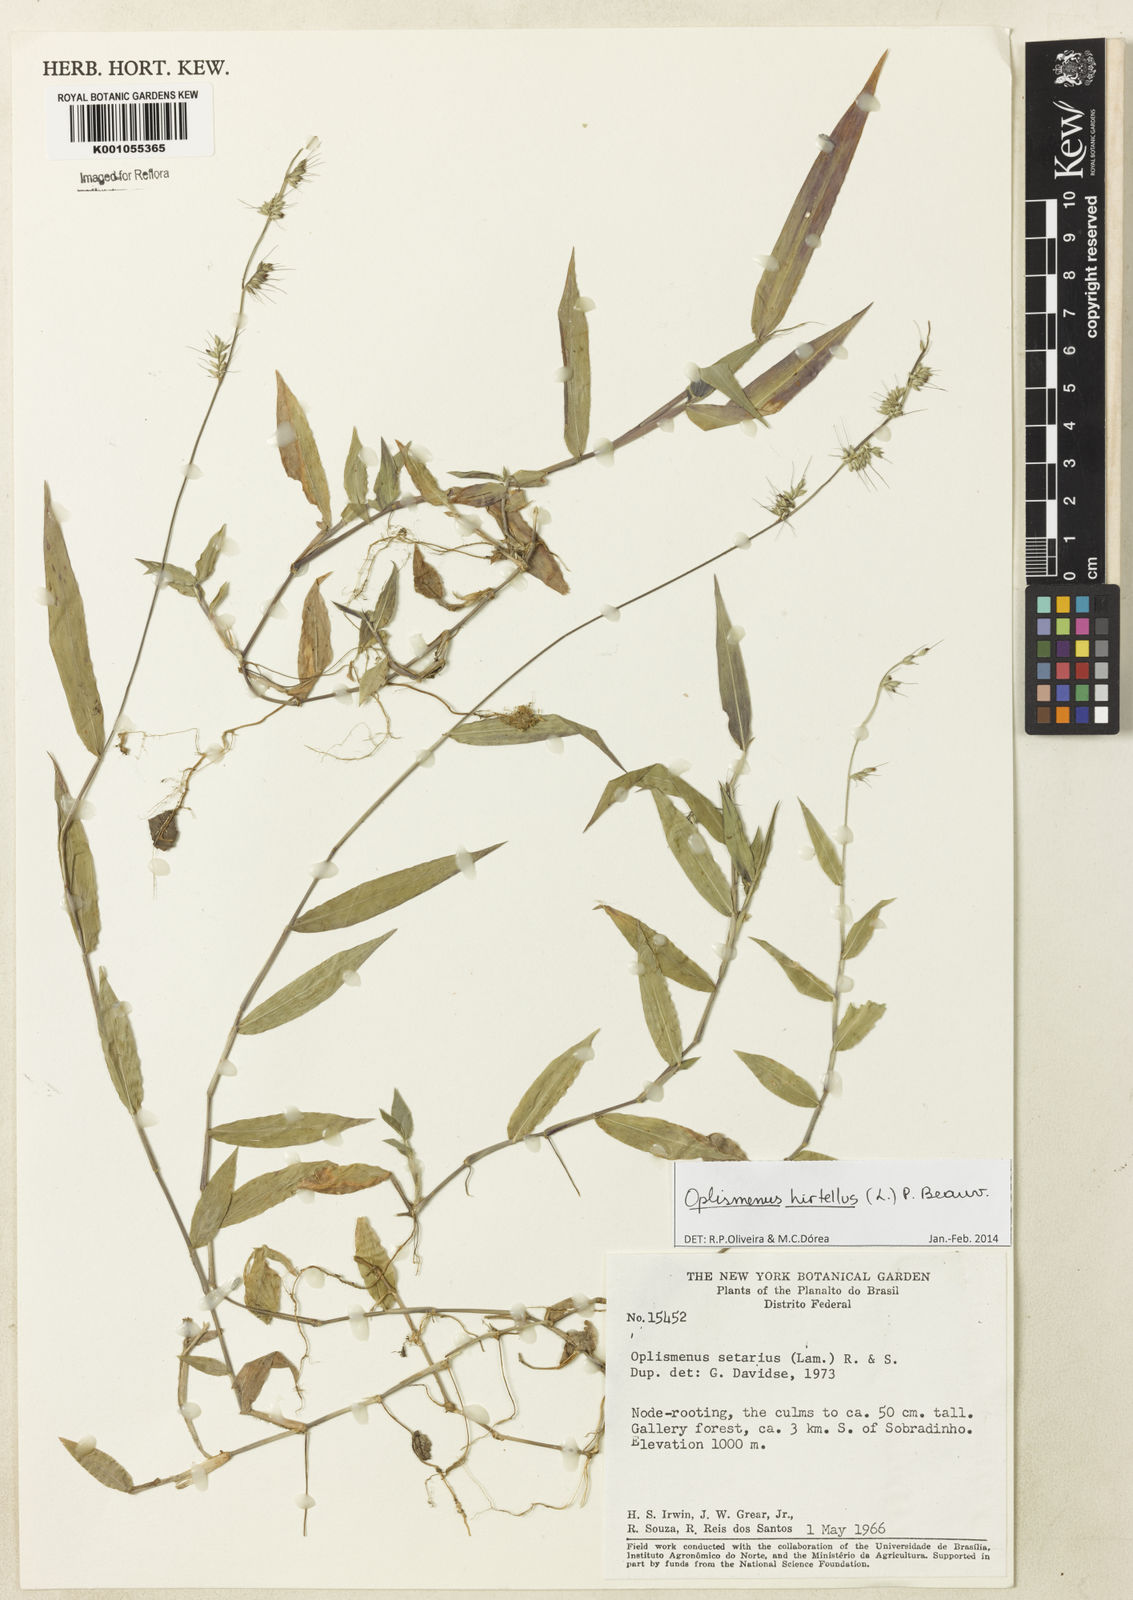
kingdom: Plantae
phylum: Tracheophyta
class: Liliopsida
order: Poales
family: Poaceae
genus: Oplismenus
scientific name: Oplismenus hirtellus
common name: Basketgrass
